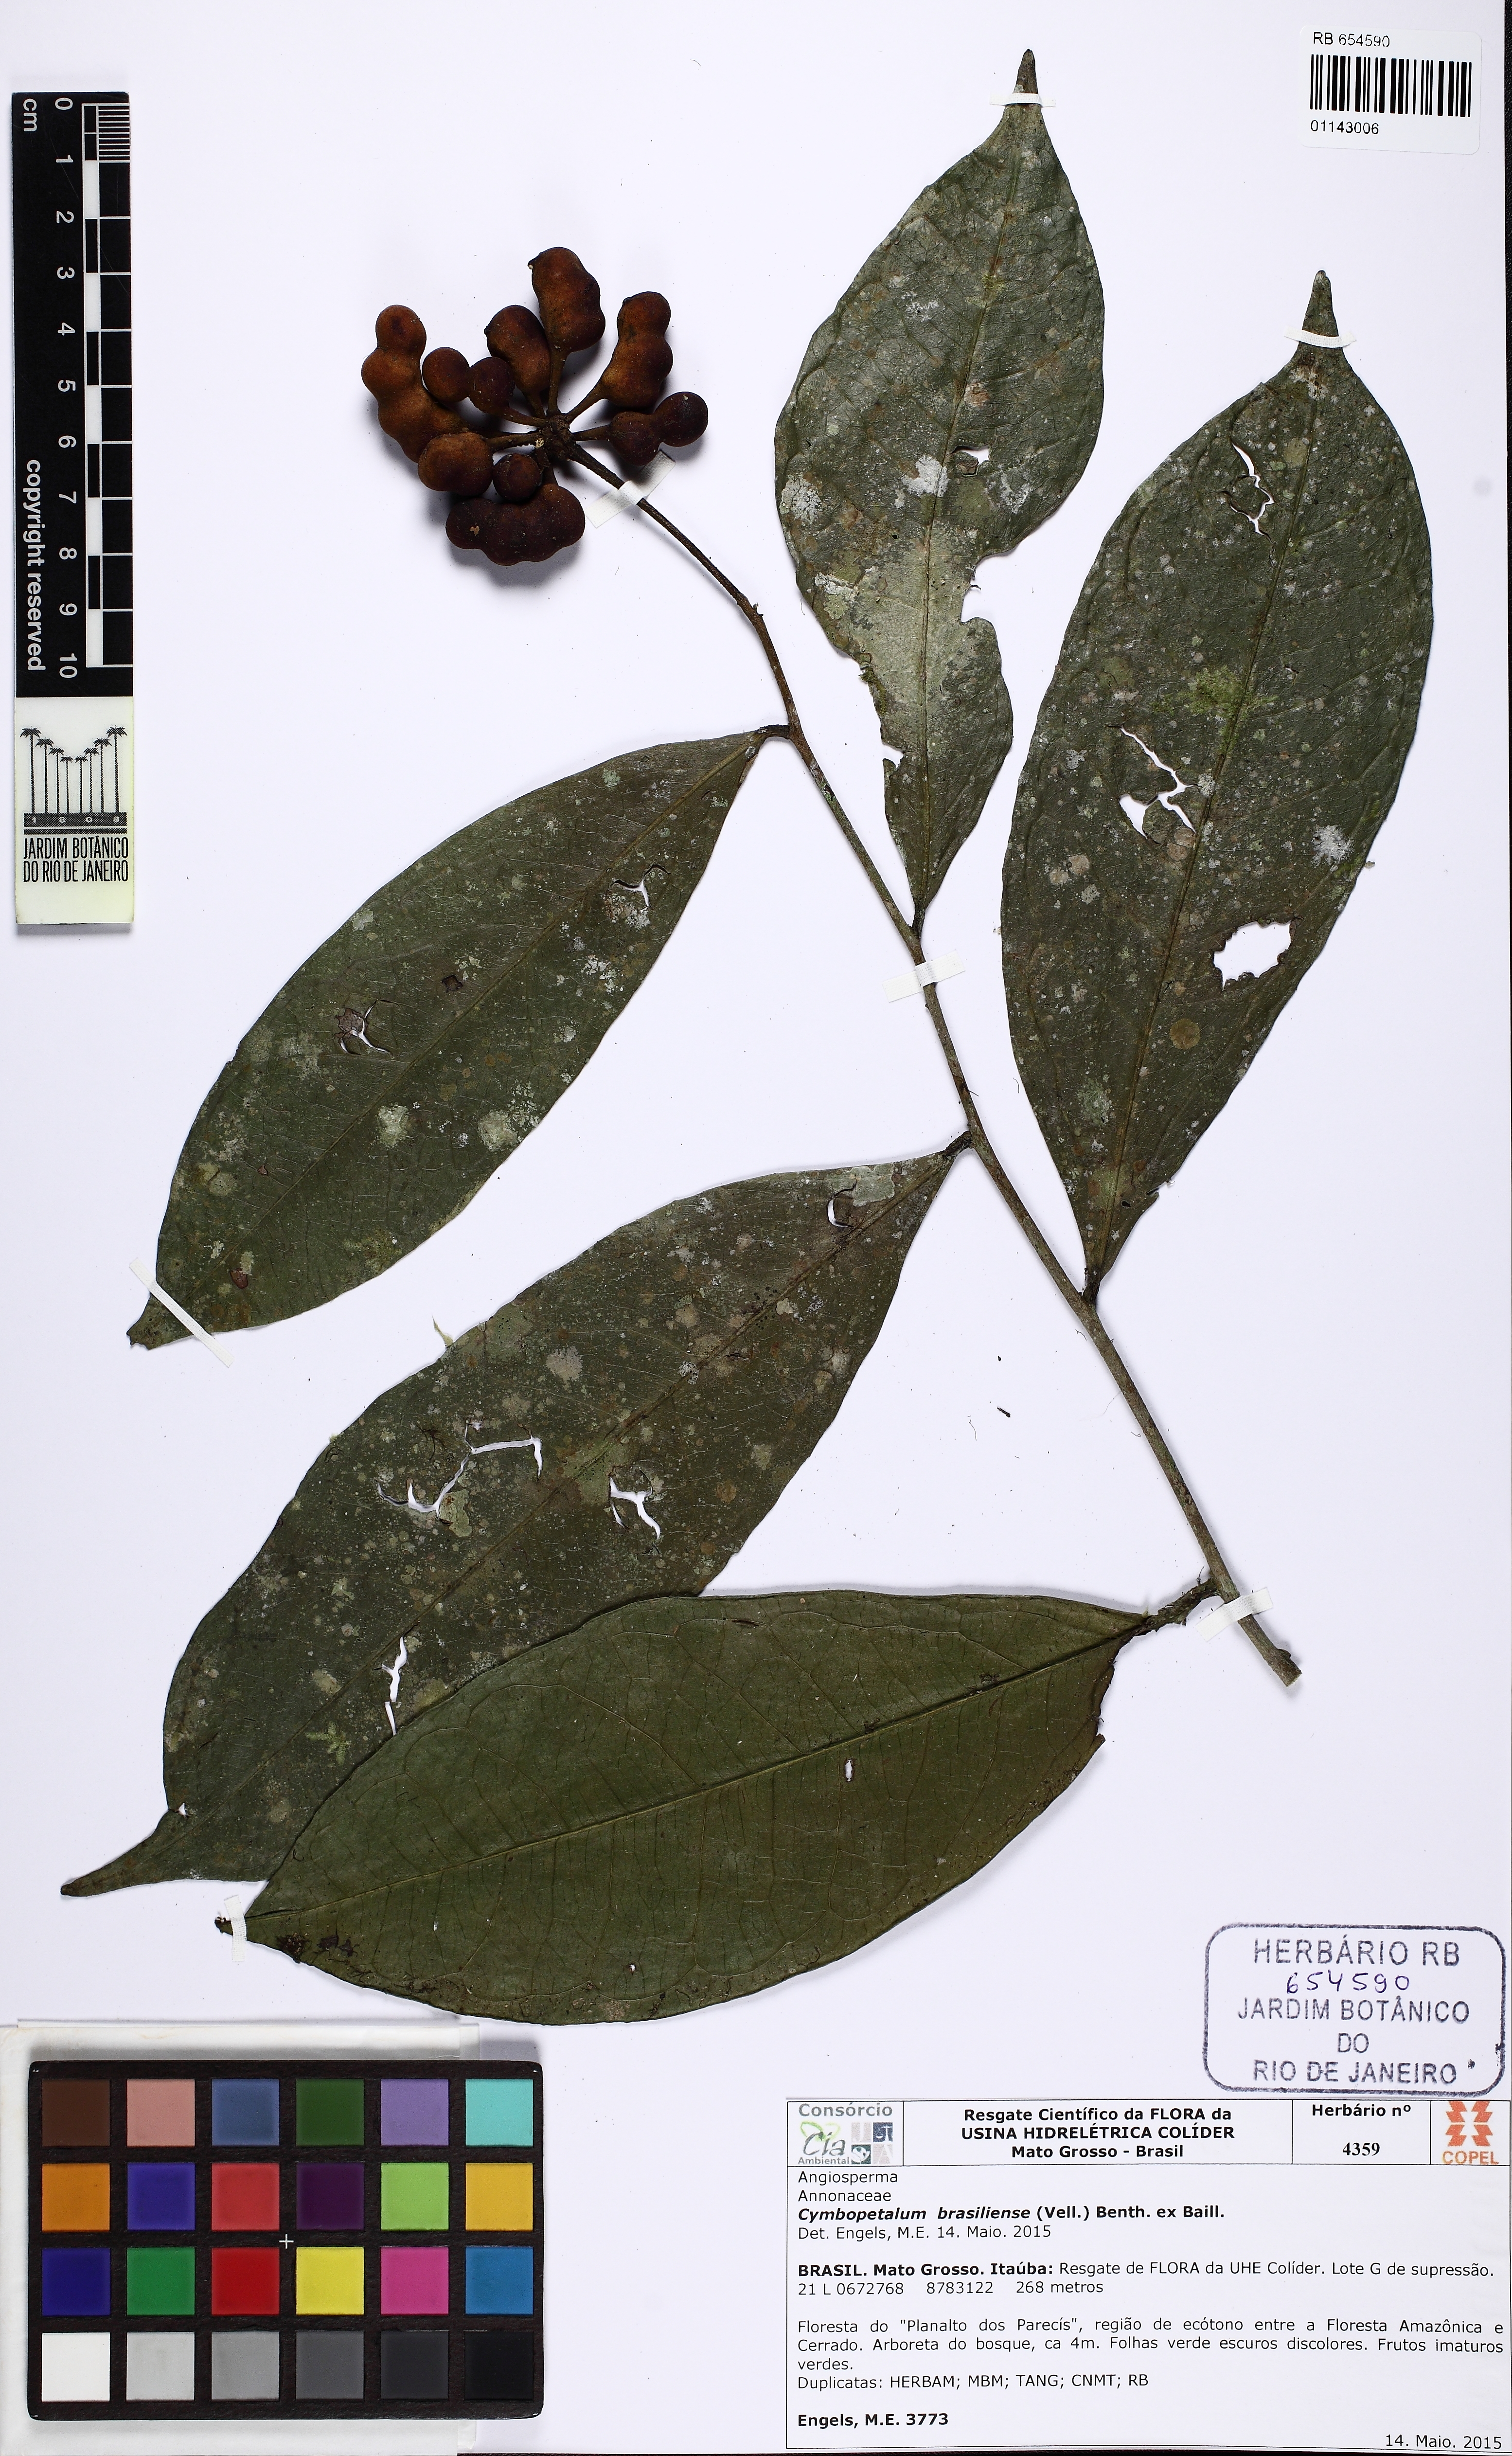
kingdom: Plantae
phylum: Tracheophyta
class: Magnoliopsida
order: Magnoliales
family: Annonaceae
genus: Cymbopetalum
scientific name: Cymbopetalum brasiliense
